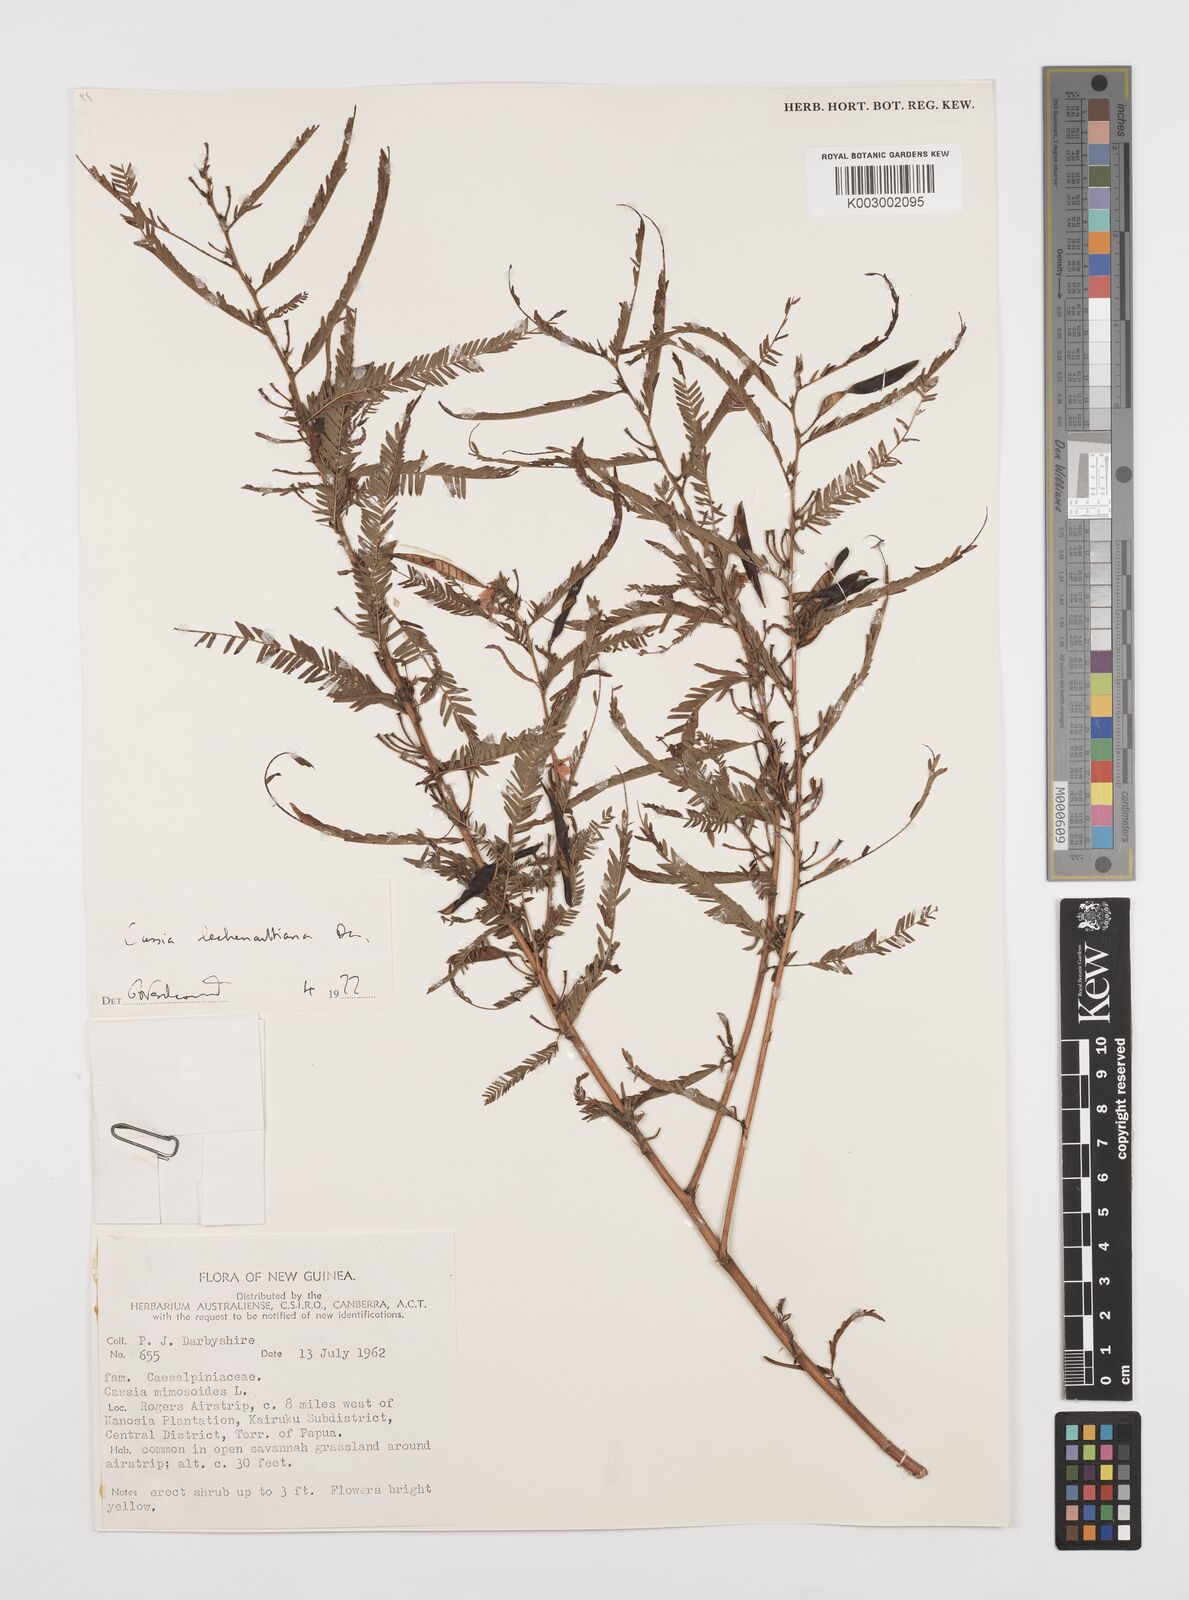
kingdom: Plantae
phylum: Tracheophyta
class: Magnoliopsida
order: Fabales
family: Fabaceae
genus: Chamaecrista
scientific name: Chamaecrista mimosoides
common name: Fish-bone cassia
